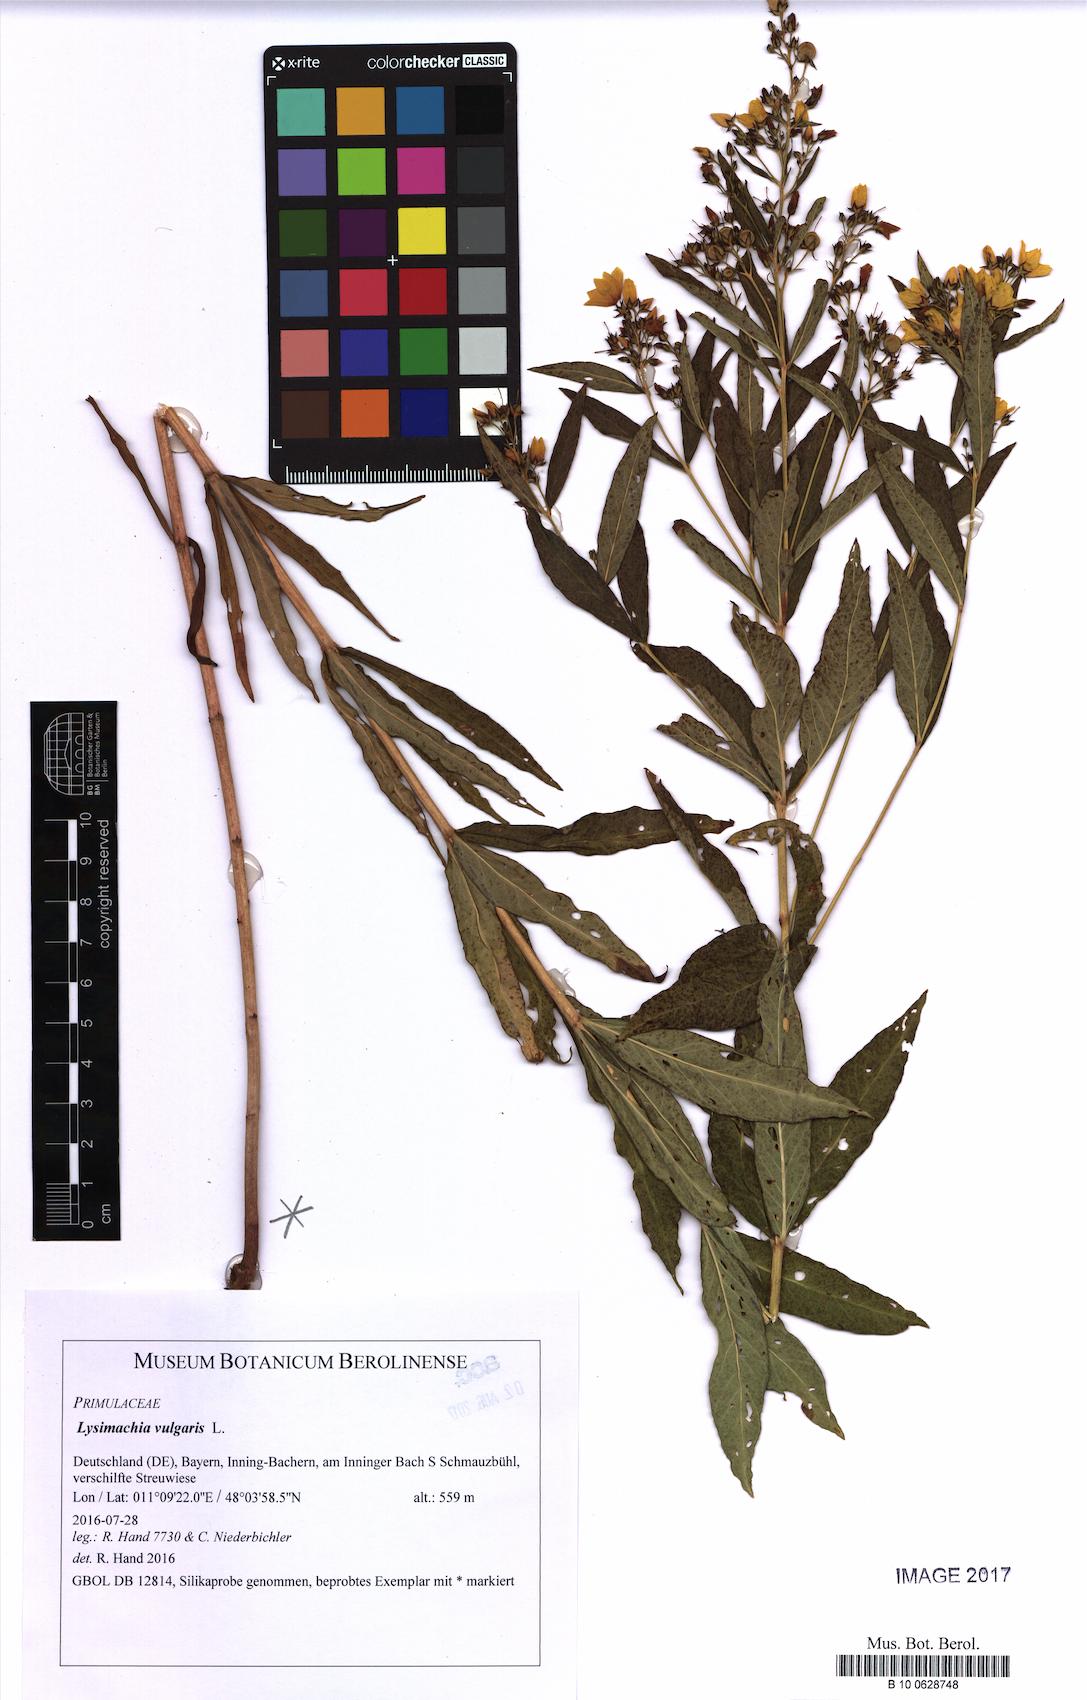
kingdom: Plantae
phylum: Tracheophyta
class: Magnoliopsida
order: Ericales
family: Primulaceae
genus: Lysimachia
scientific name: Lysimachia vulgaris
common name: Yellow loosestrife
